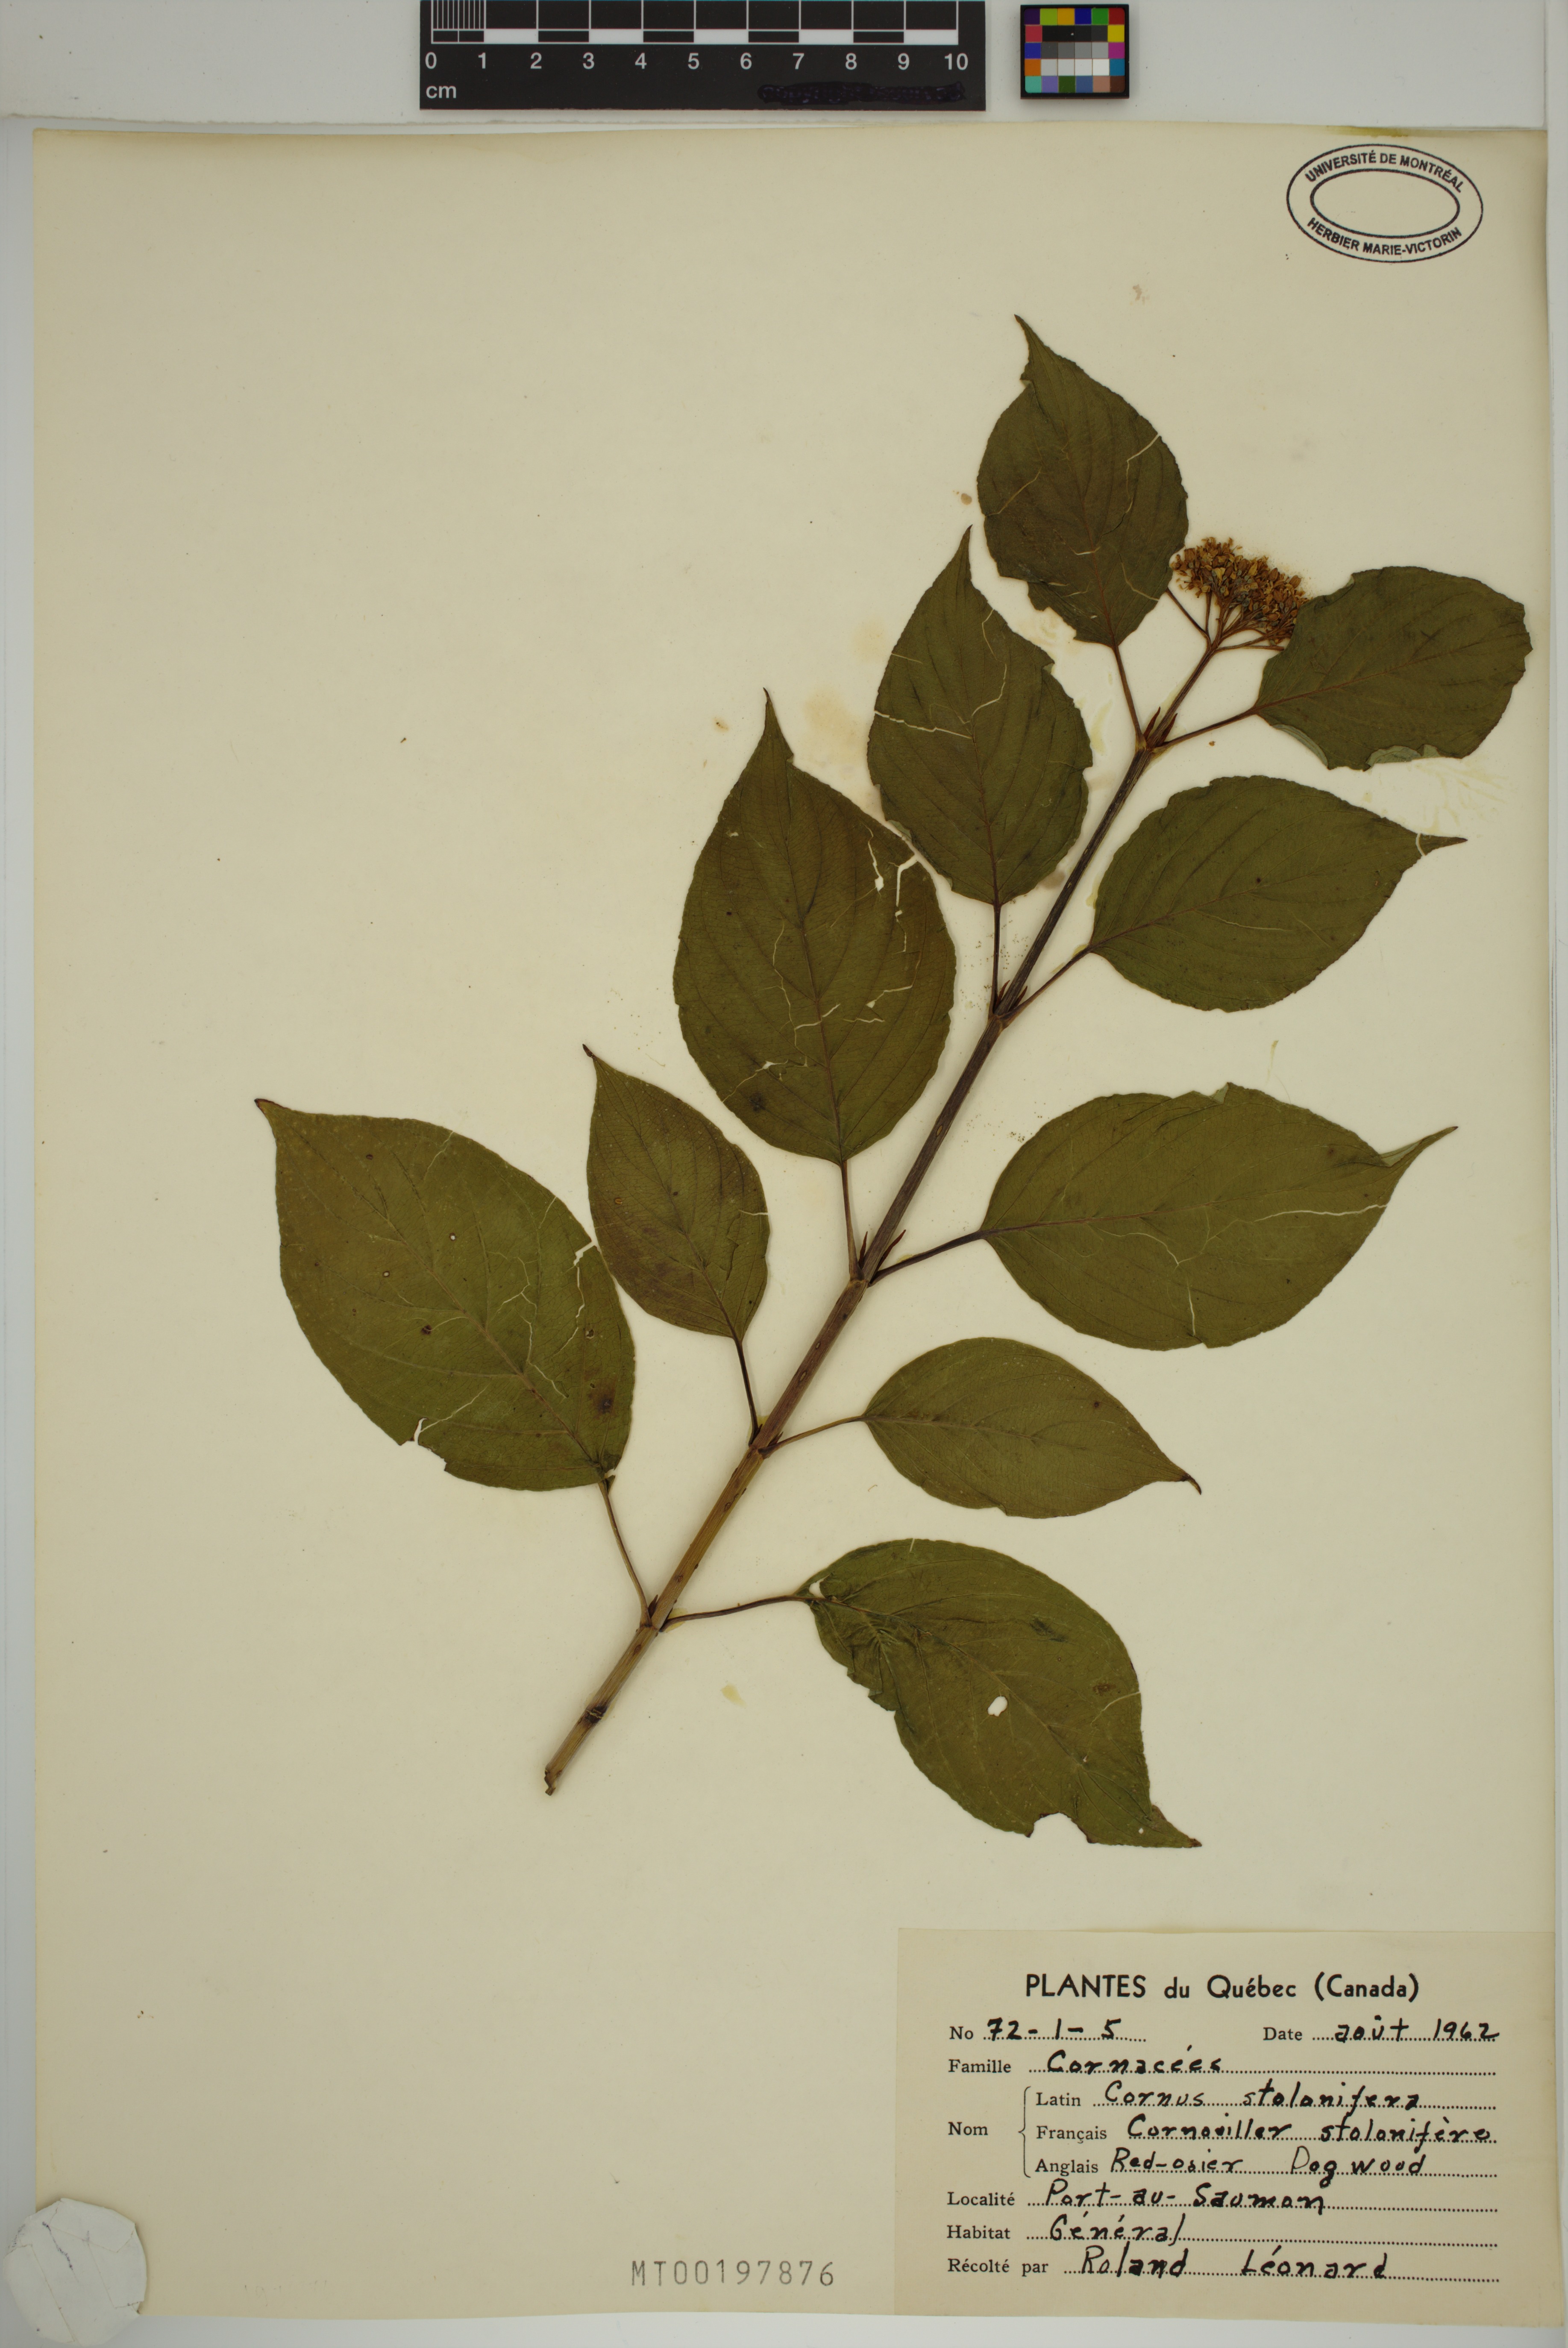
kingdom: Plantae
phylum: Tracheophyta
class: Magnoliopsida
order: Cornales
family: Cornaceae
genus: Cornus
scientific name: Cornus sericea
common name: Red-osier dogwood
